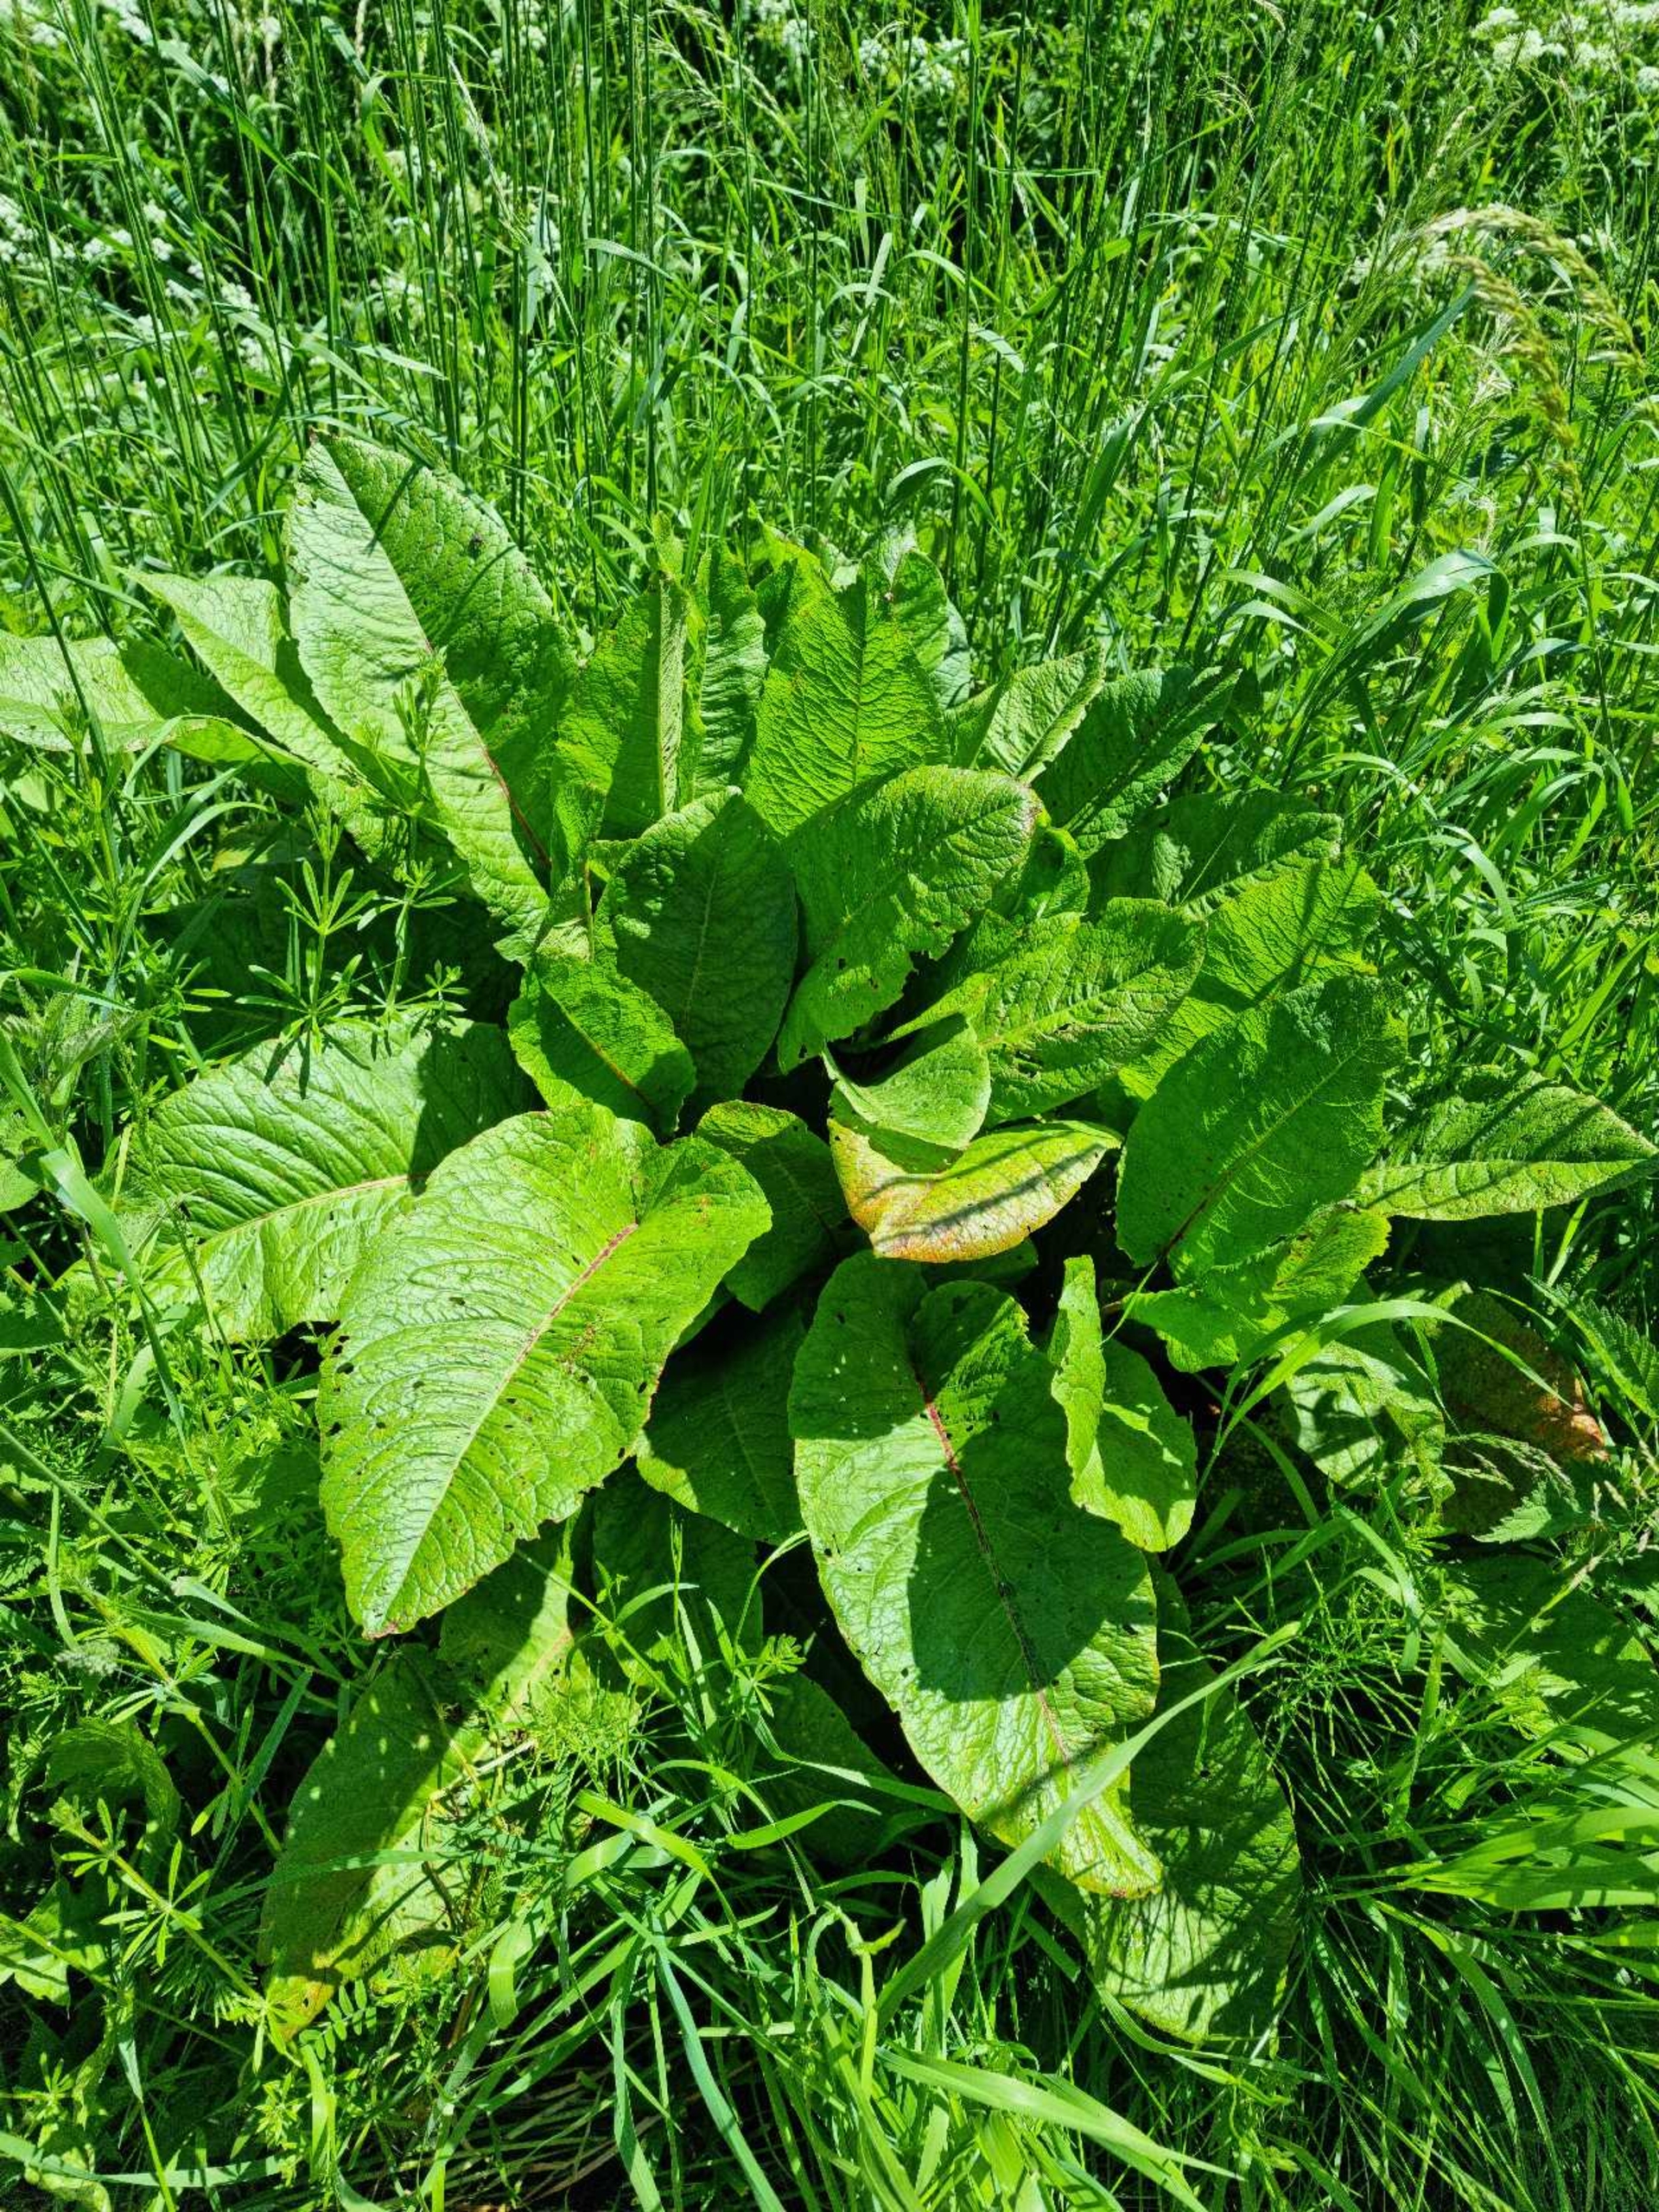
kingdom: Plantae
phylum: Tracheophyta
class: Magnoliopsida
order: Caryophyllales
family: Polygonaceae
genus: Rumex
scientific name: Rumex obtusifolius
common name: Butbladet skræppe
